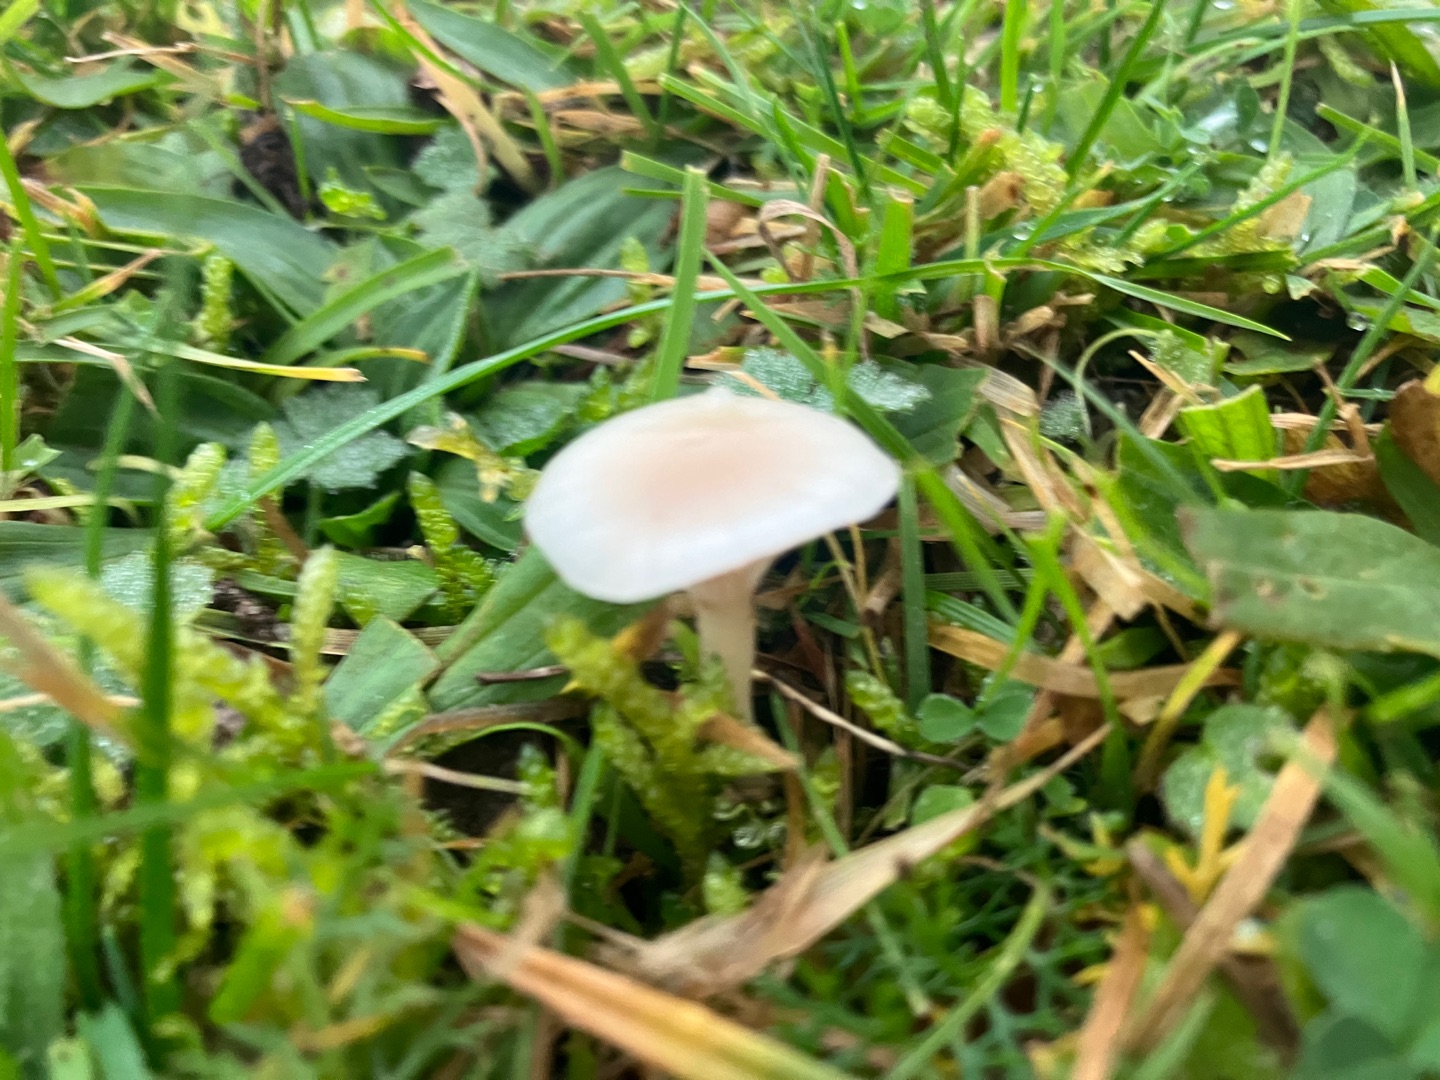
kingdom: Fungi
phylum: Basidiomycota
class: Agaricomycetes
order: Agaricales
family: Hygrophoraceae
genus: Cuphophyllus
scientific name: Cuphophyllus virgineus
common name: Snehvid vokshat
